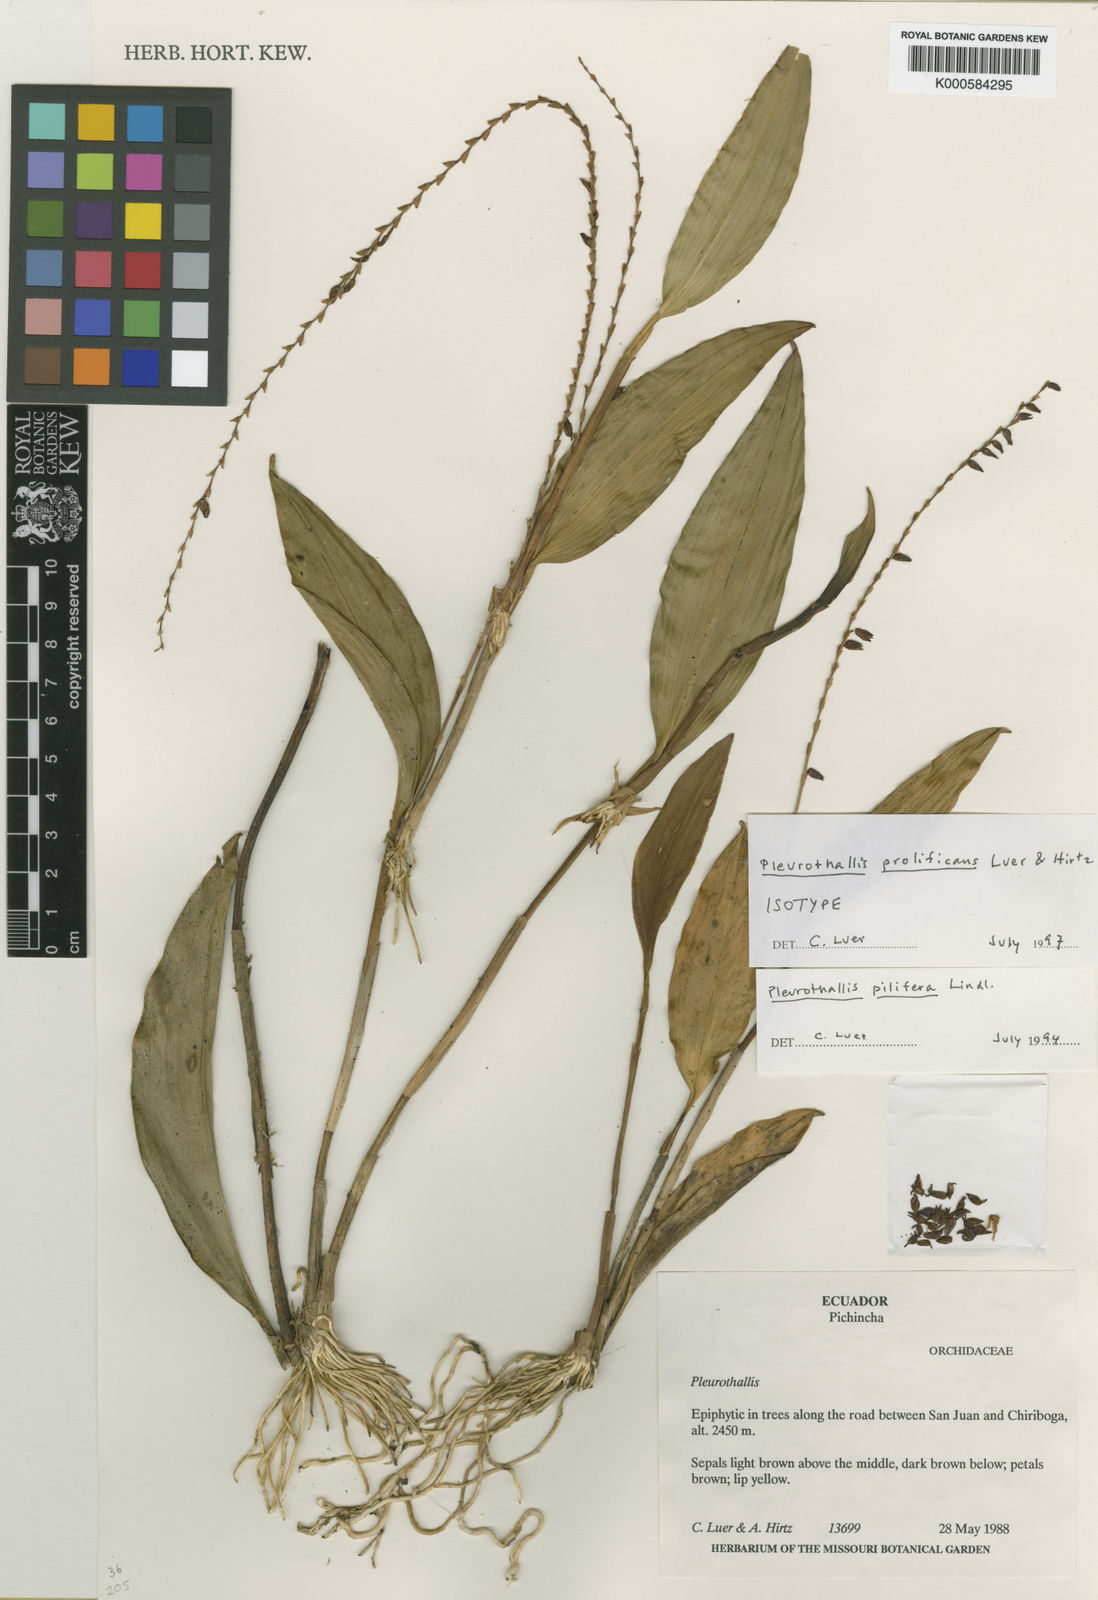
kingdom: Plantae
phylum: Tracheophyta
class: Liliopsida
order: Asparagales
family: Orchidaceae
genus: Stelis
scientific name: Stelis prolificans
